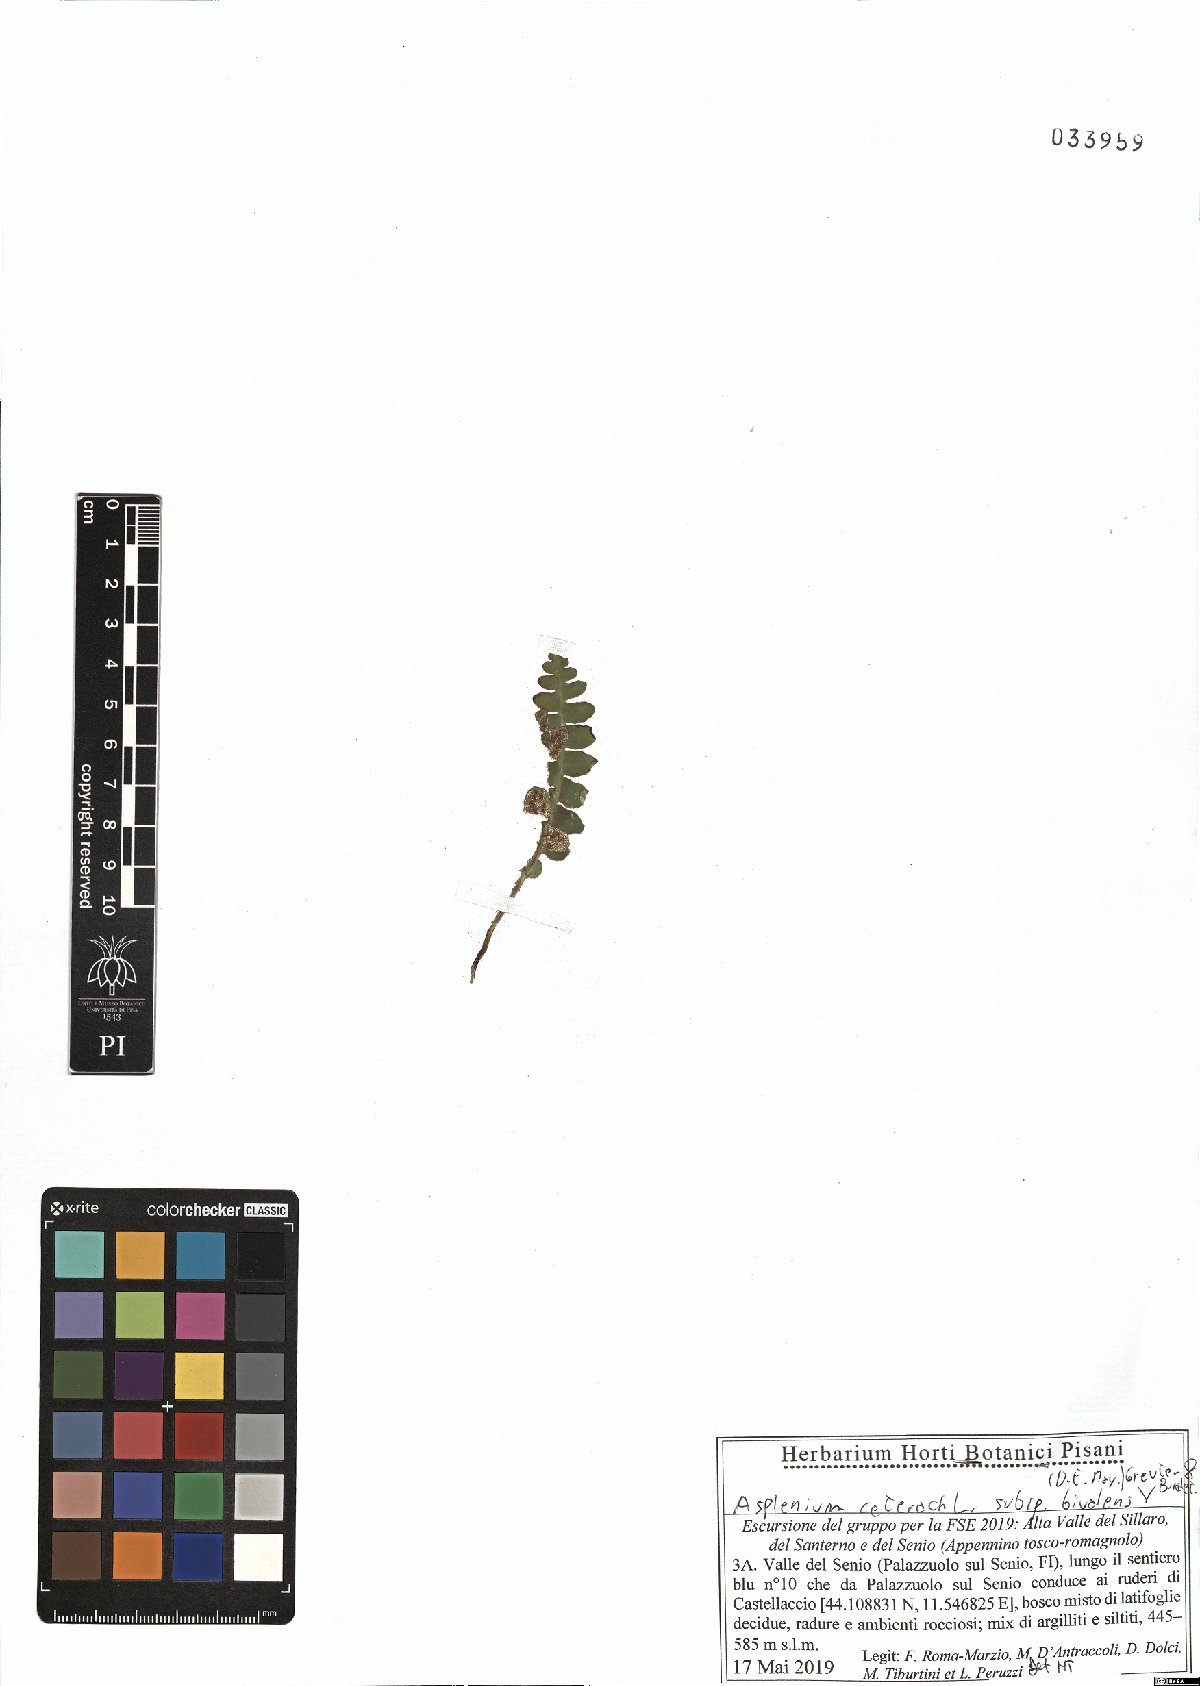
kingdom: Plantae
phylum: Tracheophyta
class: Polypodiopsida
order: Polypodiales
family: Aspleniaceae
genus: Asplenium
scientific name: Asplenium ceterach
